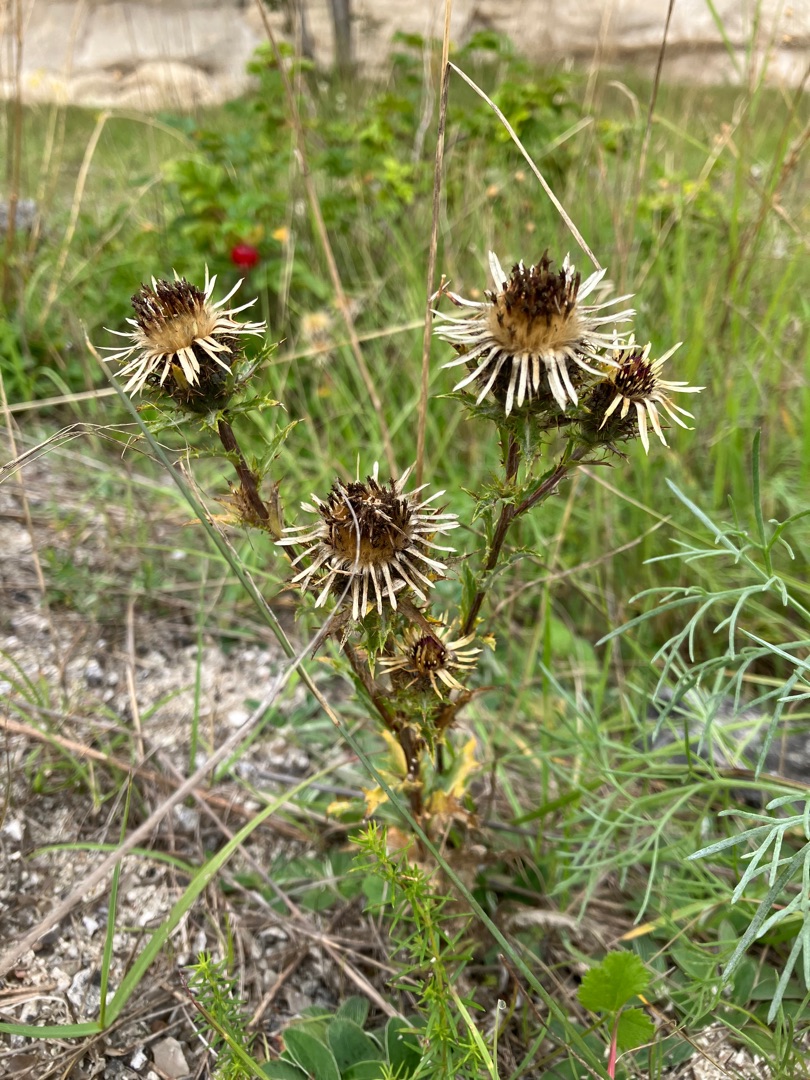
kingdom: Plantae
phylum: Tracheophyta
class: Magnoliopsida
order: Asterales
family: Asteraceae
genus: Carlina
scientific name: Carlina vulgaris
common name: Bakketidsel
